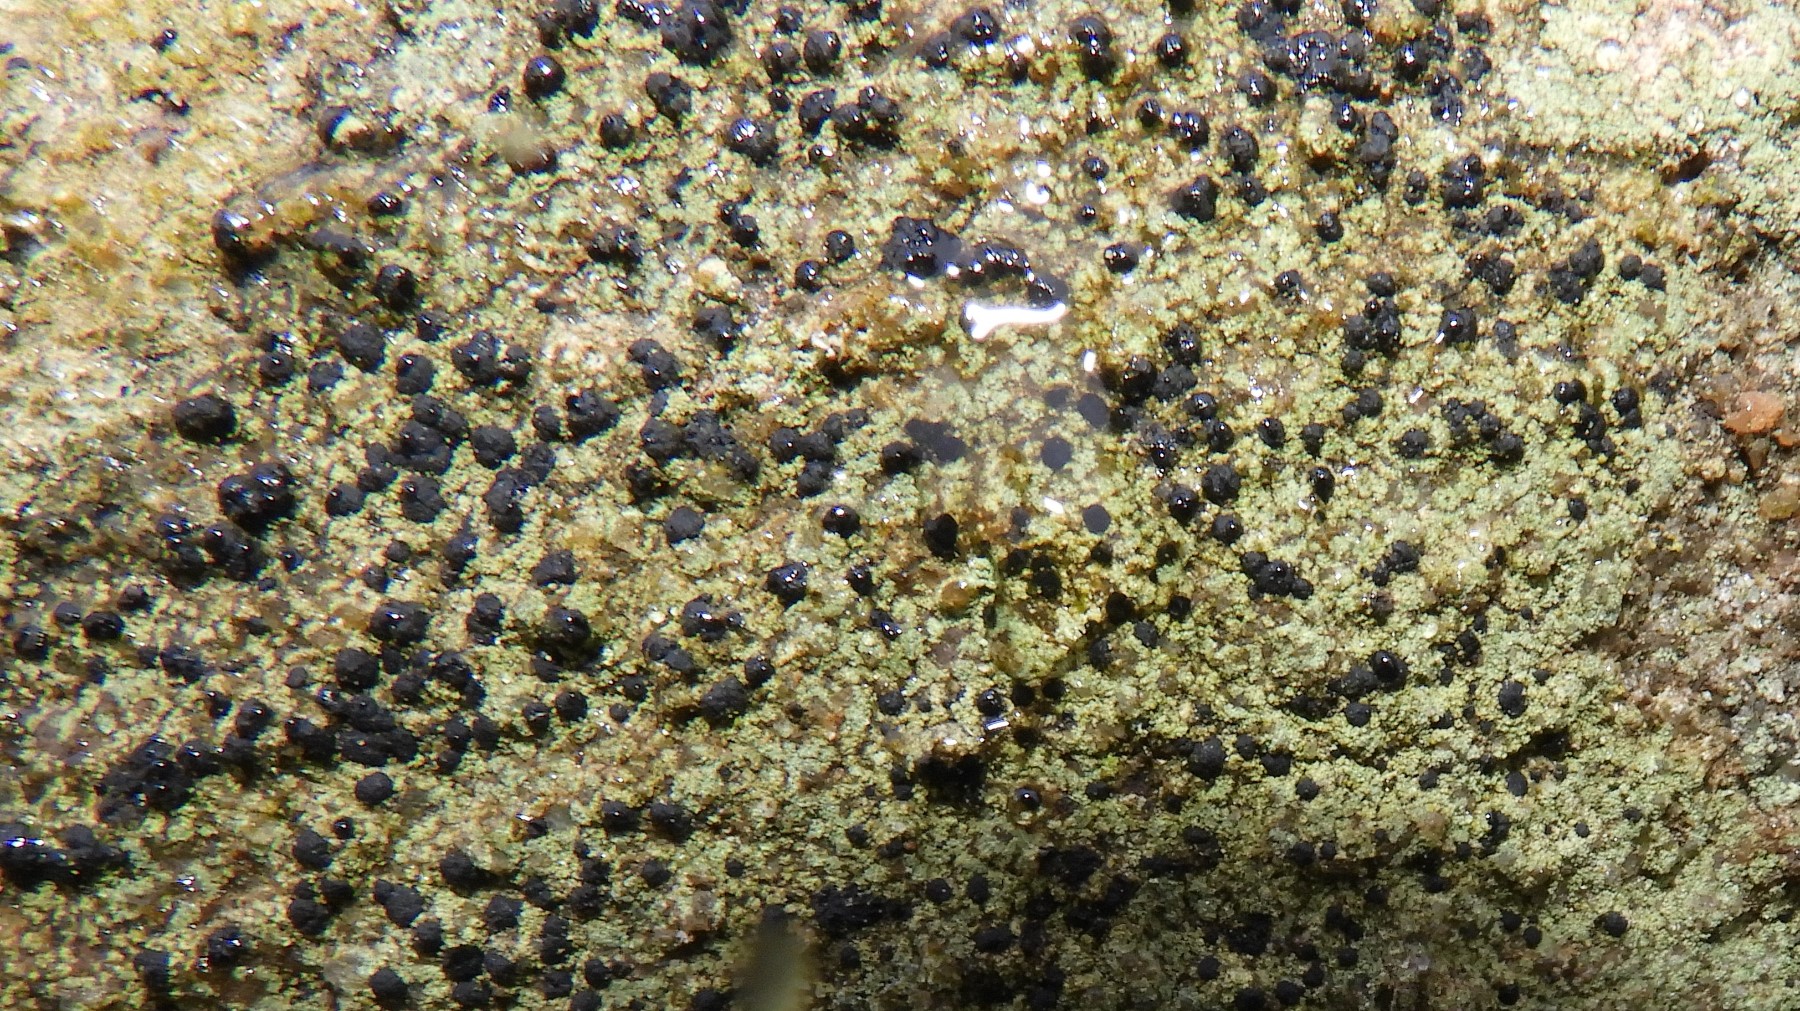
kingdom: Fungi
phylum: Ascomycota
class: Lecanoromycetes
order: Lecanorales
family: Lecanoraceae
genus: Lecidella
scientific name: Lecidella scabra
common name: skurvet skivelav
